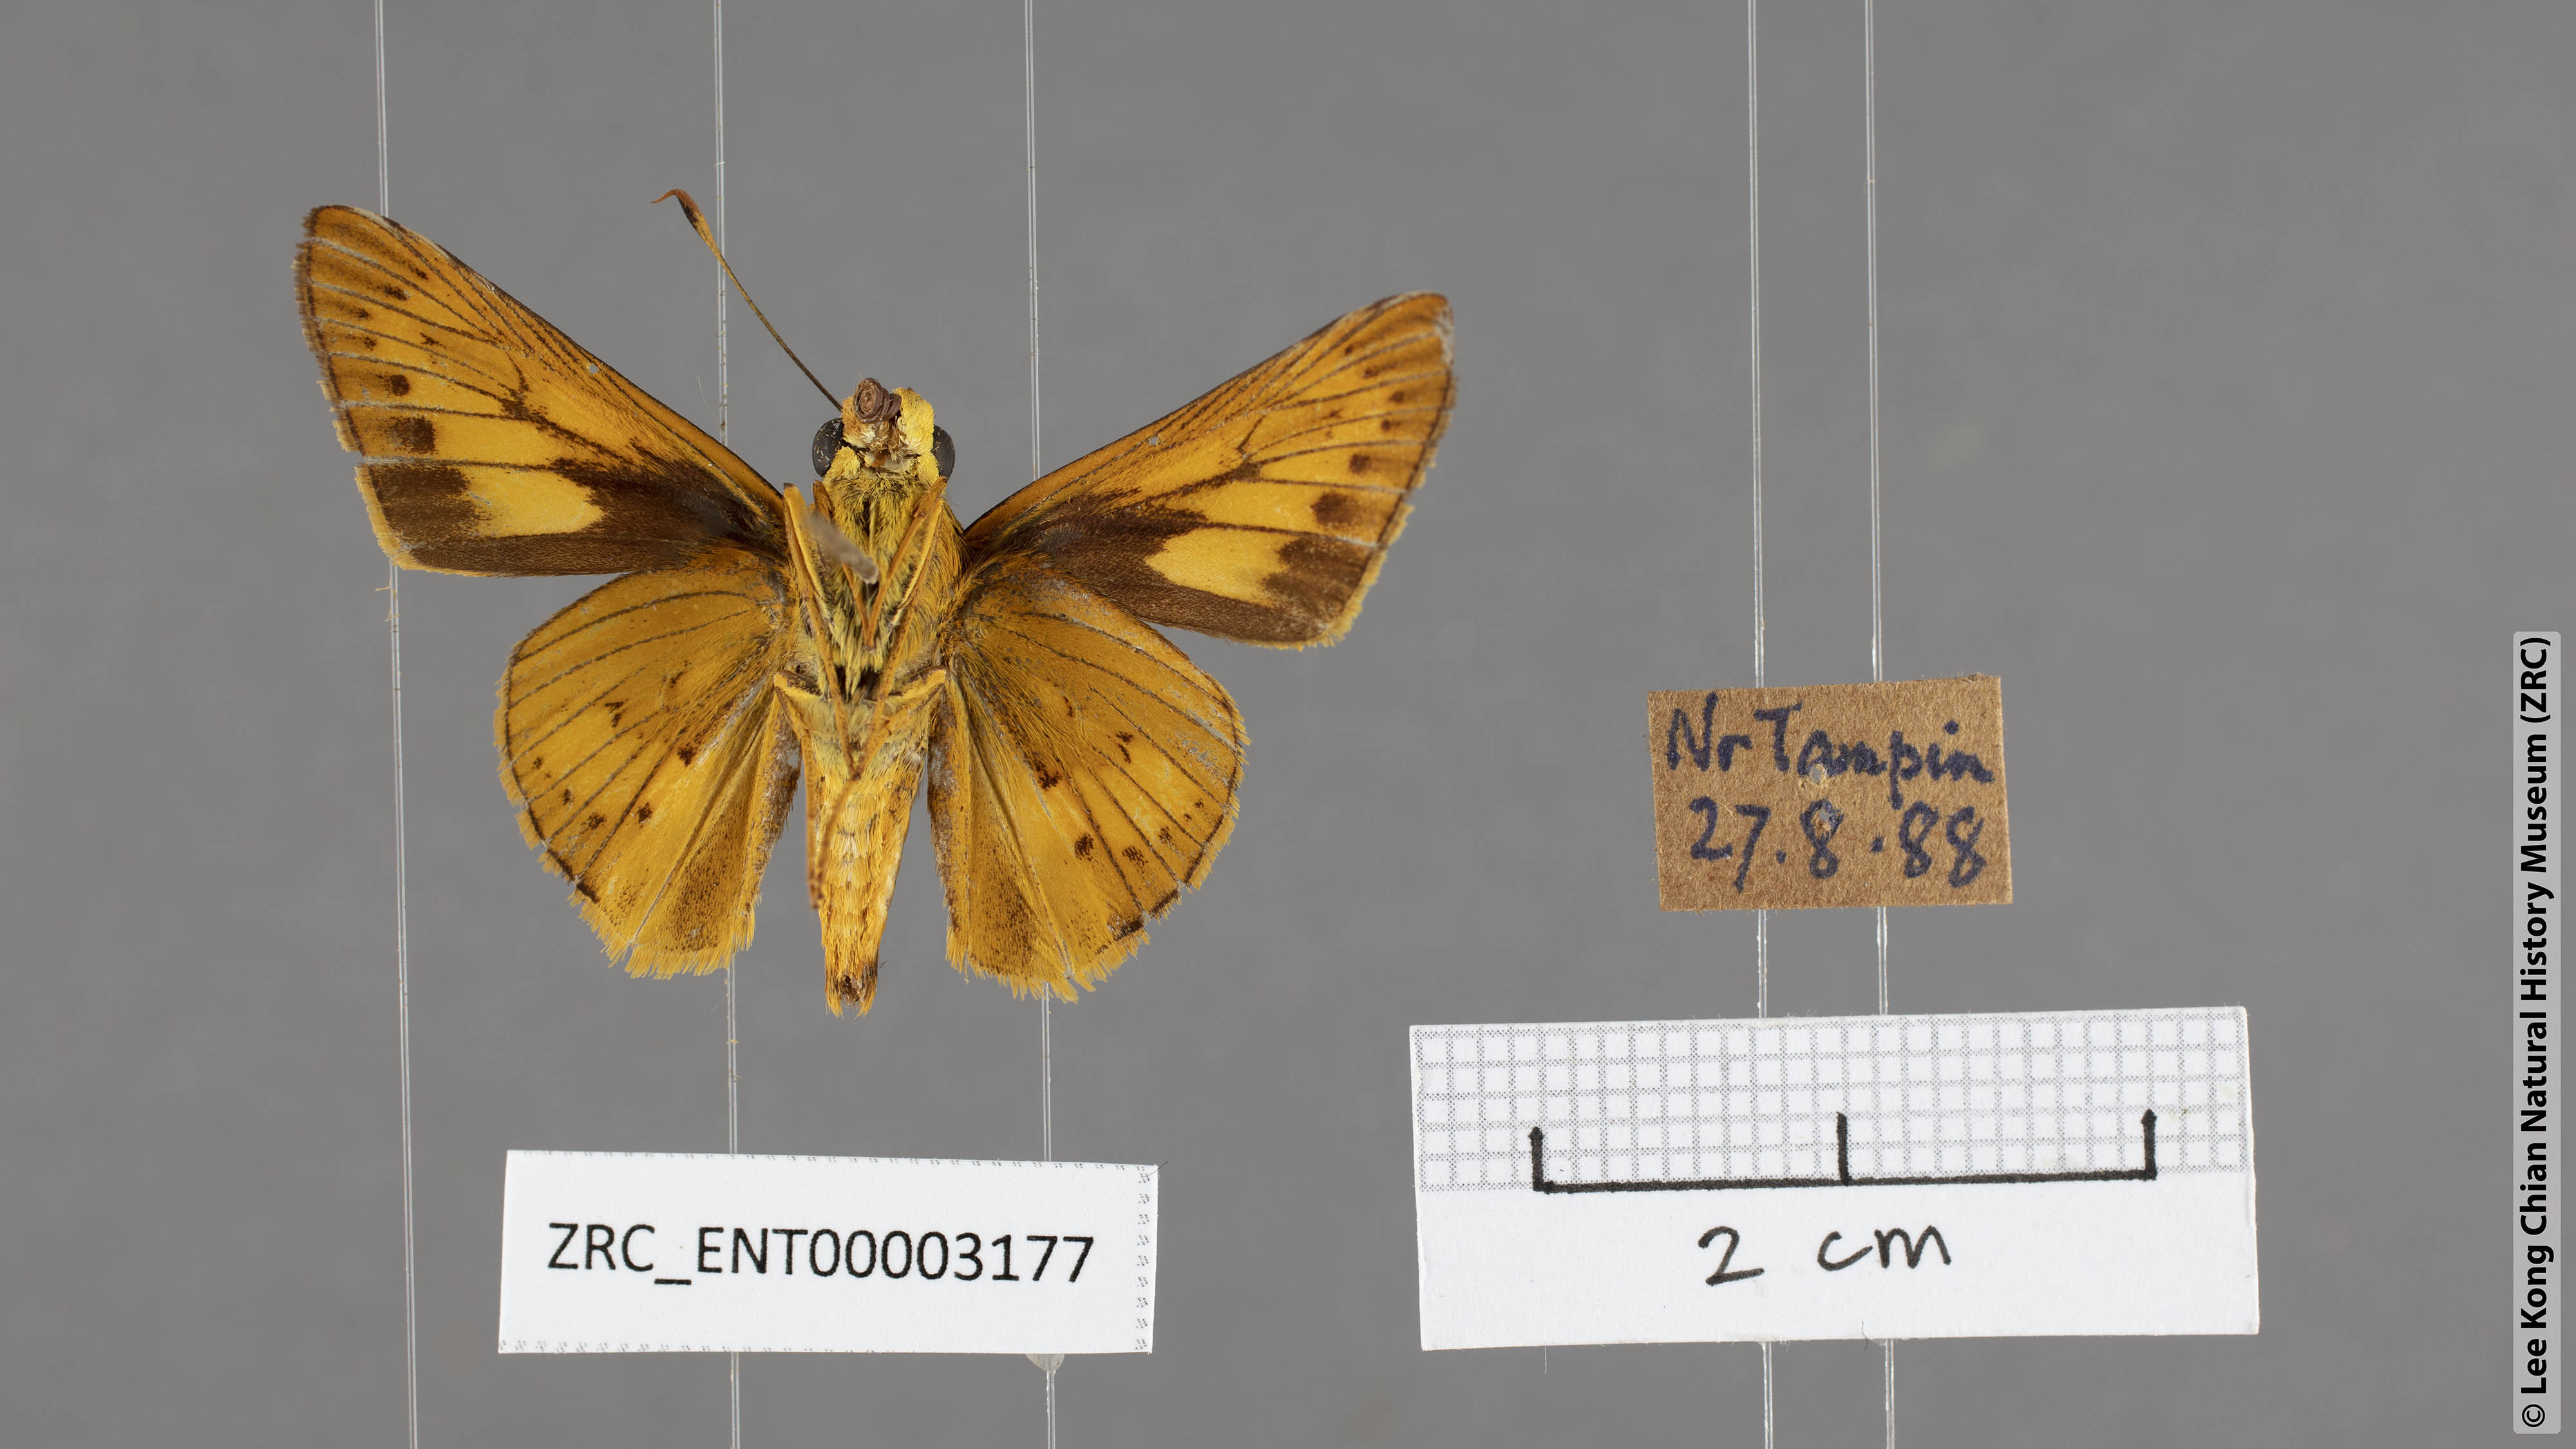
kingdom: Animalia
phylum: Arthropoda
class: Insecta
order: Lepidoptera
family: Hesperiidae
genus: Cephrenes
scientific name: Cephrenes
